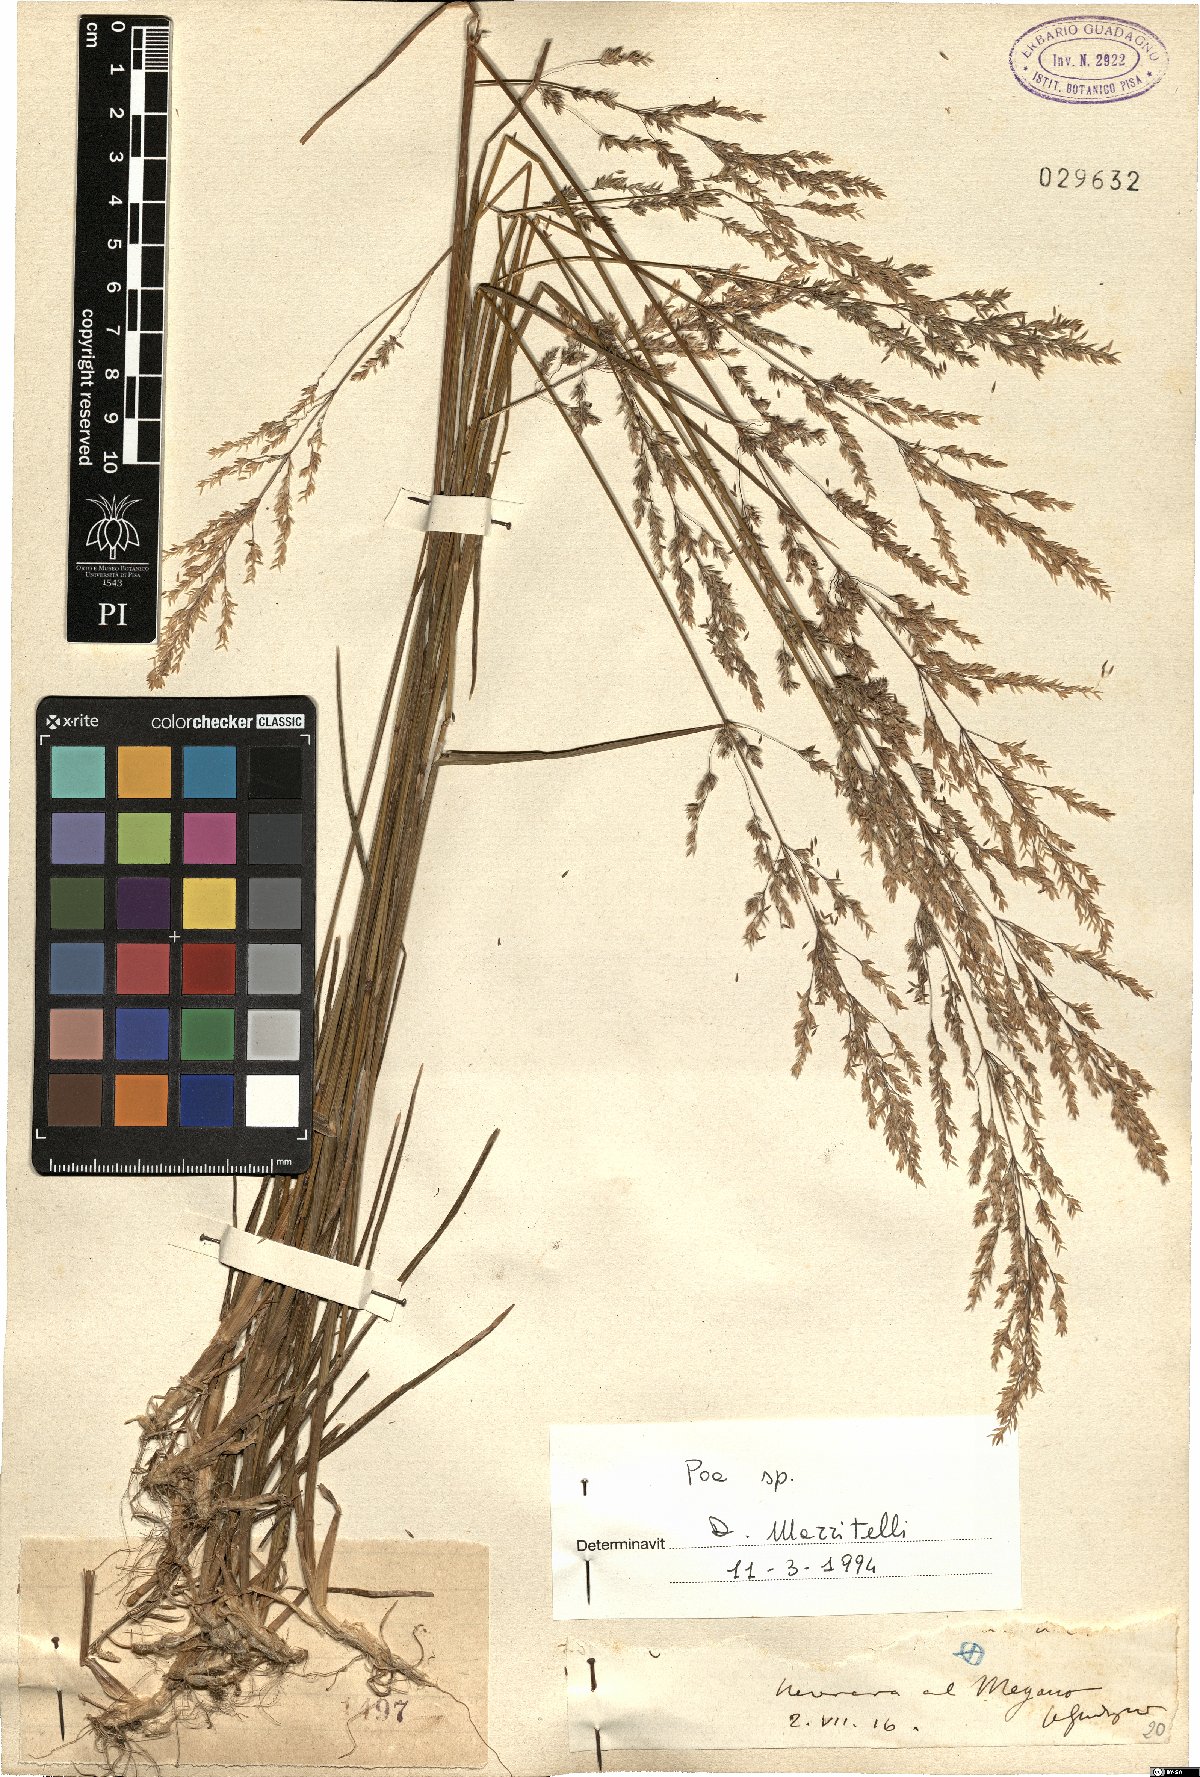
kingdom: Plantae
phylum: Tracheophyta
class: Liliopsida
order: Poales
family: Poaceae
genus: Poa
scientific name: Poa
